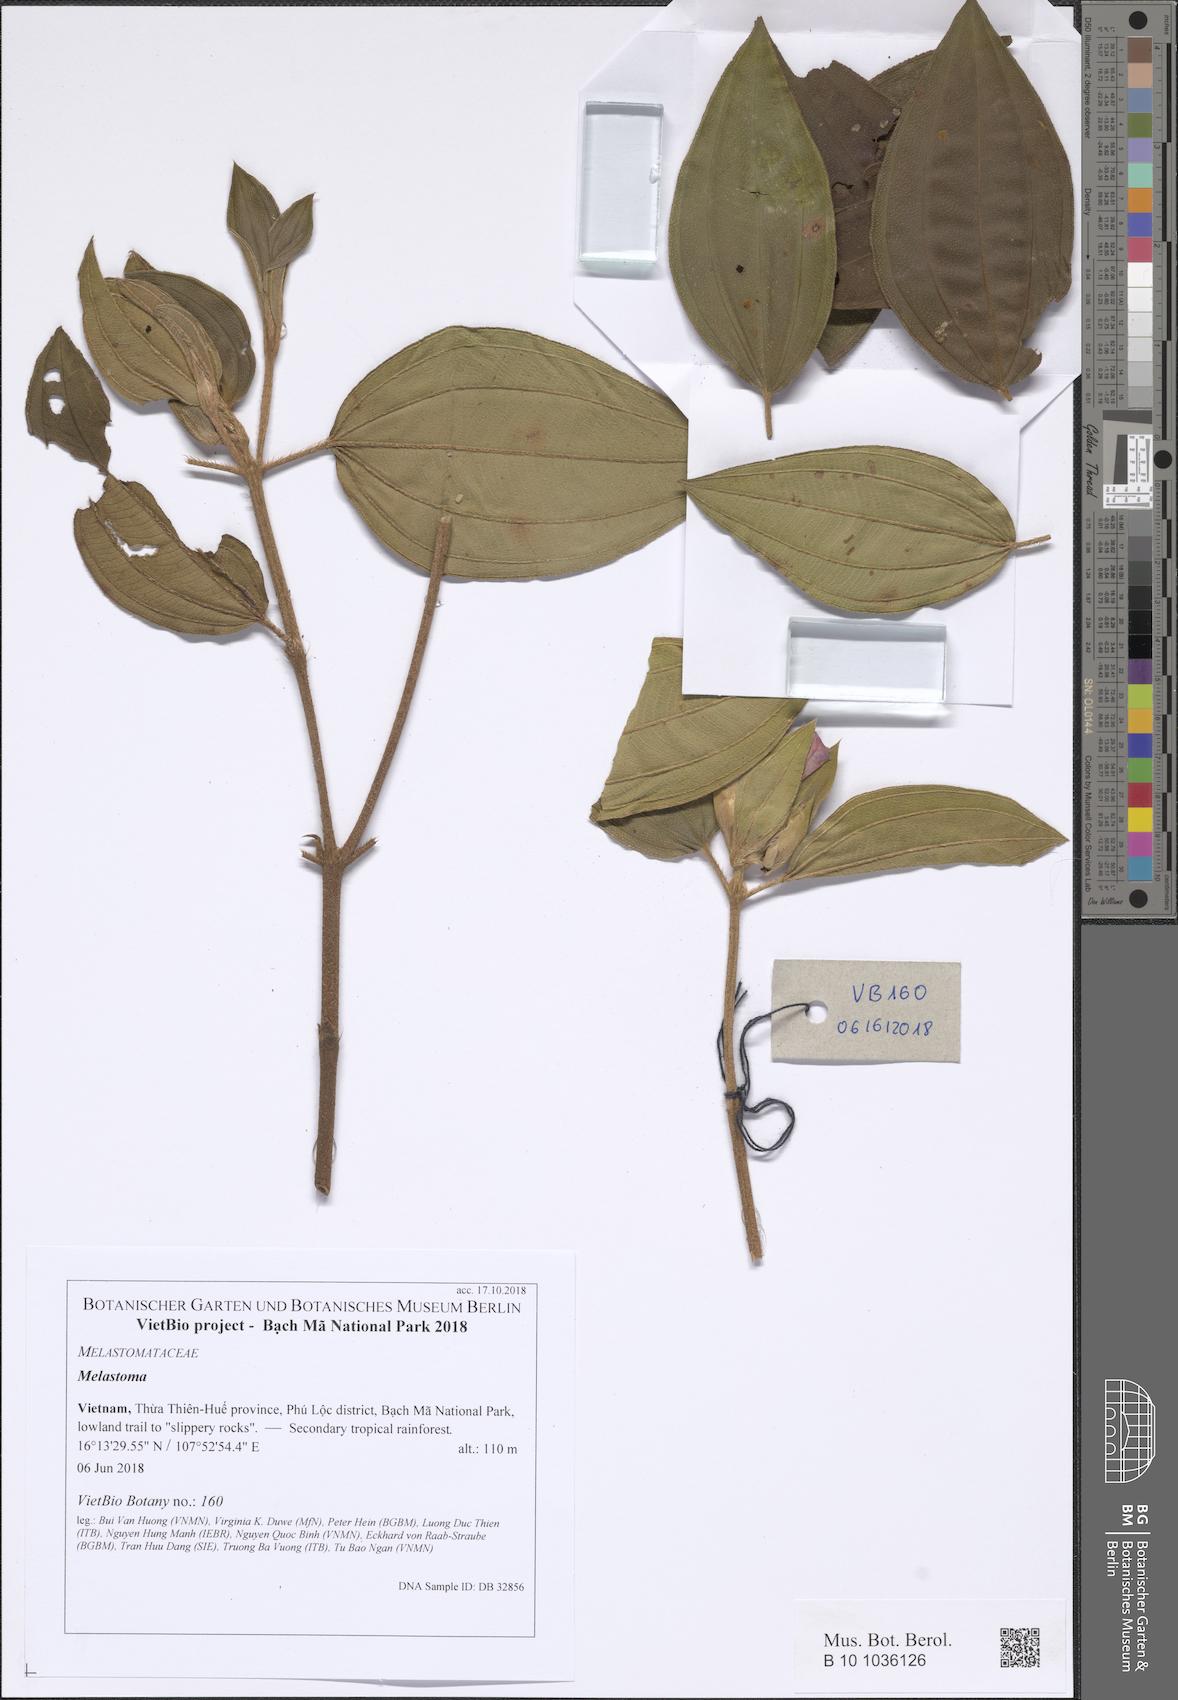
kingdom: Plantae
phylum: Tracheophyta
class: Magnoliopsida
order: Myrtales
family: Melastomataceae
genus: Melastoma
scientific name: Melastoma
